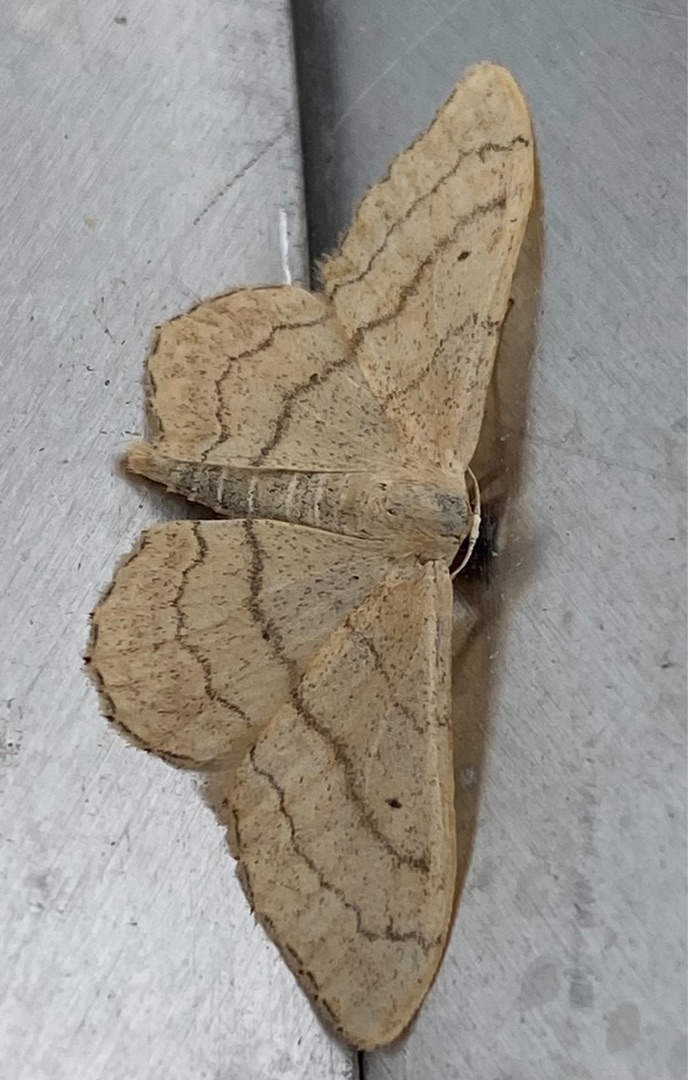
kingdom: Animalia
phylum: Arthropoda
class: Insecta
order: Lepidoptera
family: Geometridae
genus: Idaea
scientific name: Idaea aversata
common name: Vinkelstreget løvmåler
